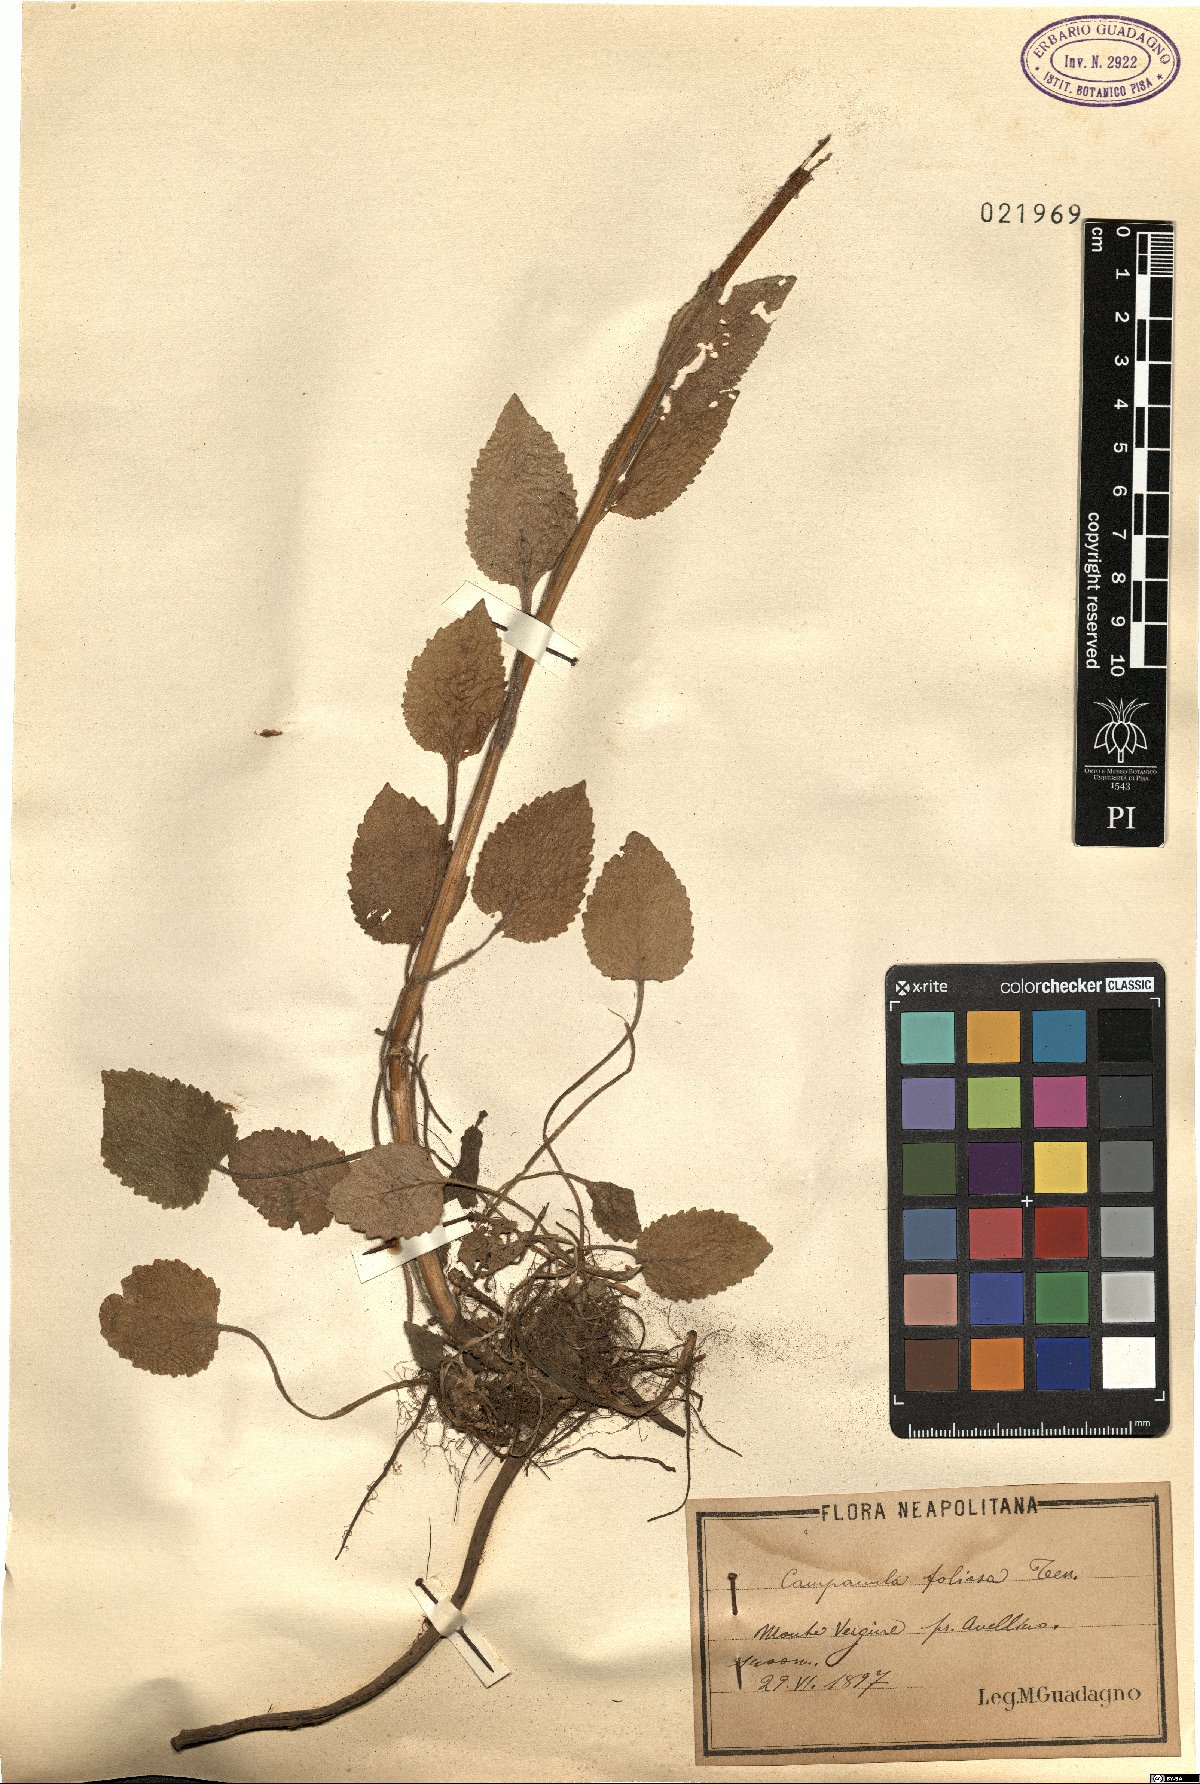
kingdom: Plantae
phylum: Tracheophyta
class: Magnoliopsida
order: Asterales
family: Campanulaceae
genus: Campanula
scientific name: Campanula foliosa
